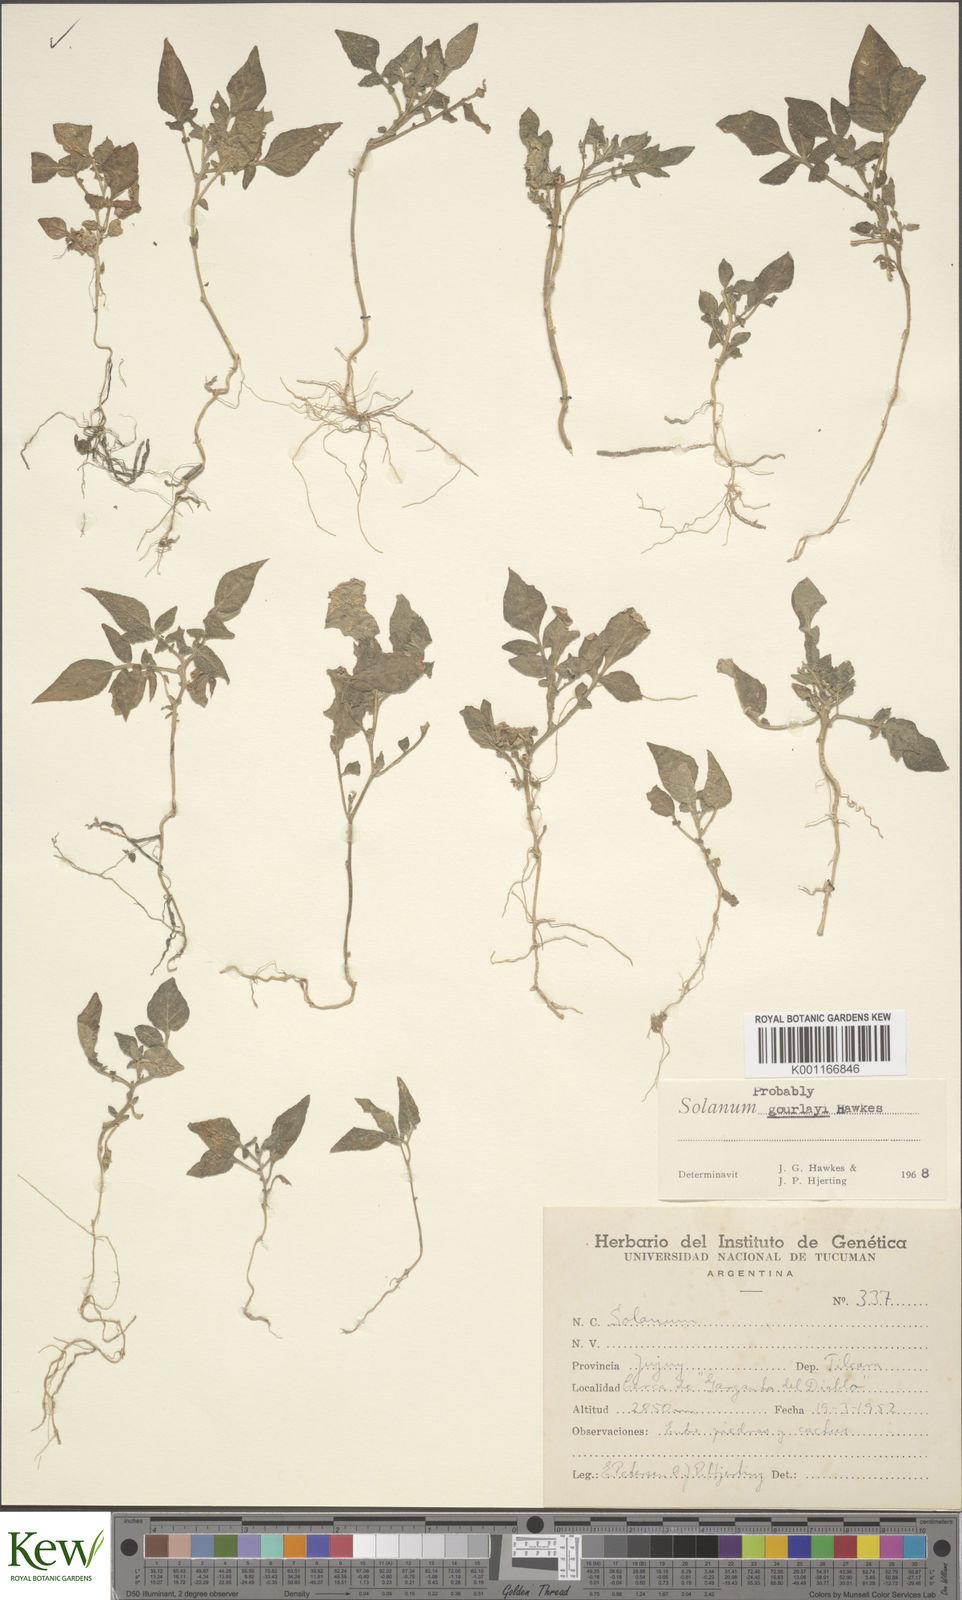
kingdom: Plantae
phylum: Tracheophyta
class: Magnoliopsida
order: Solanales
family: Solanaceae
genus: Solanum
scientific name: Solanum brevicaule
